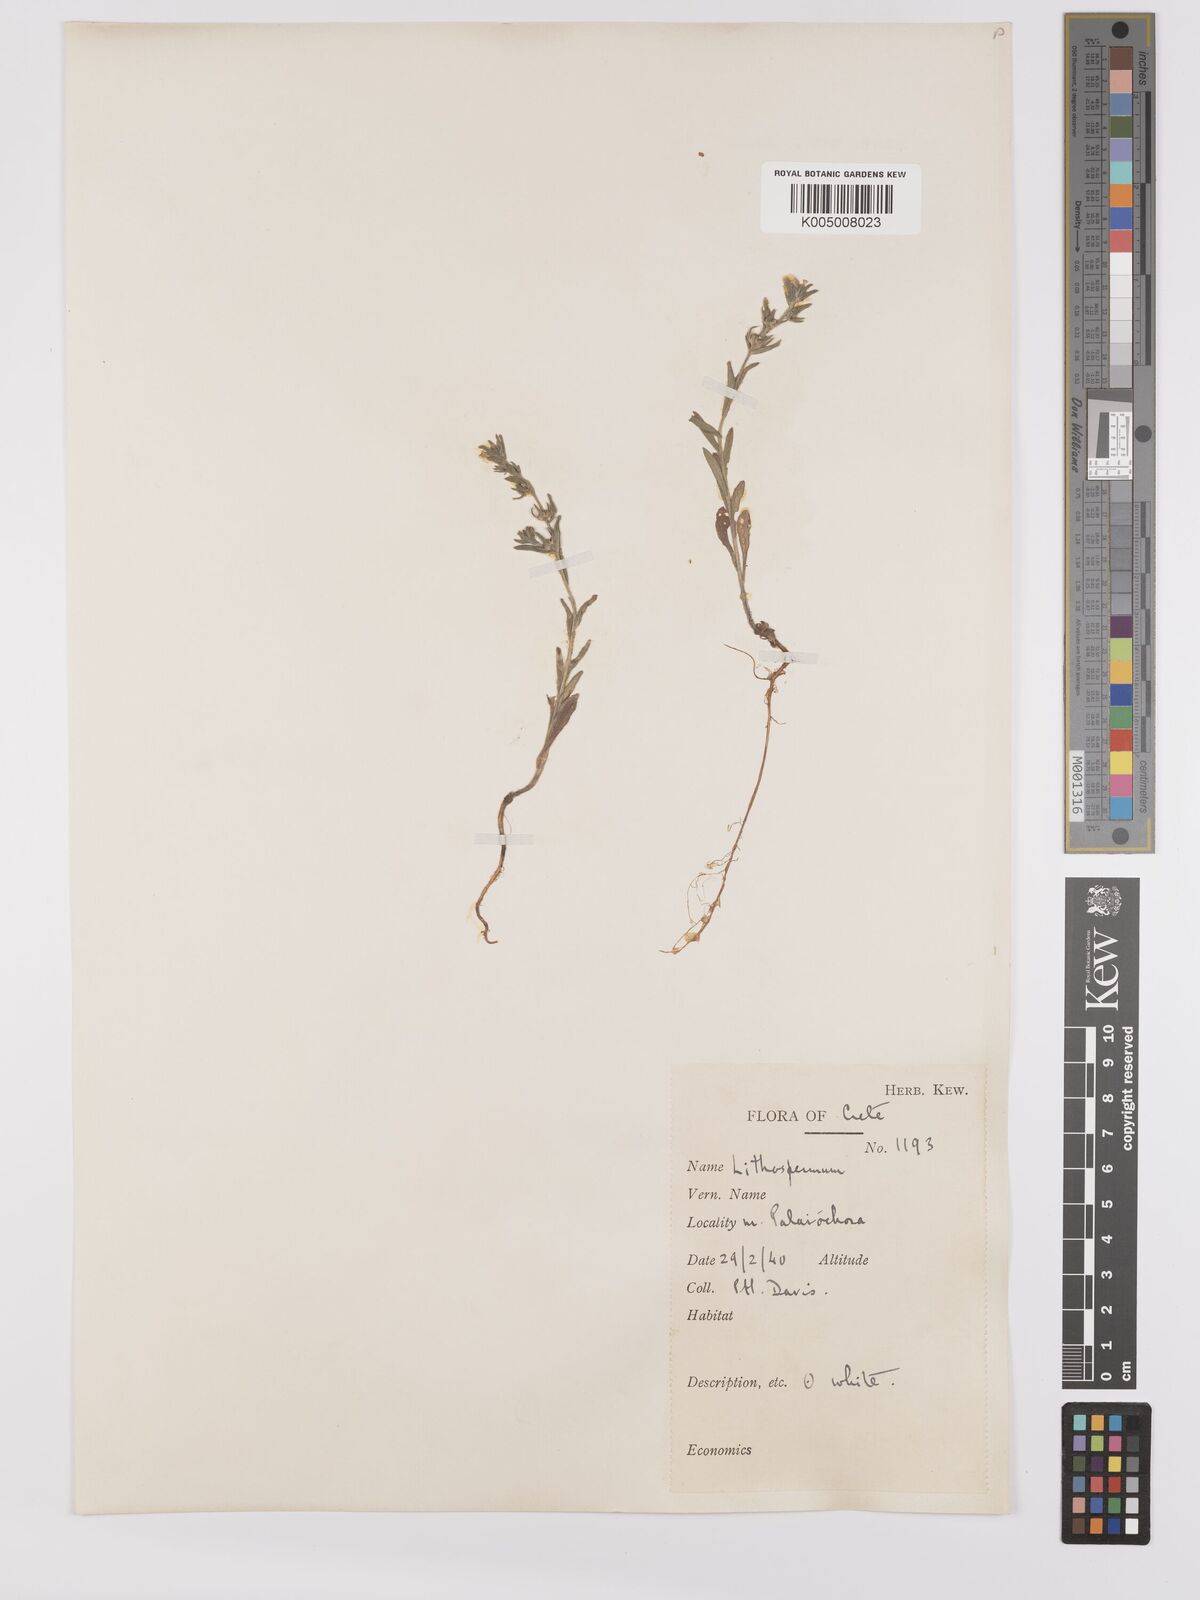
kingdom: Plantae
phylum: Tracheophyta
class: Magnoliopsida
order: Boraginales
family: Boraginaceae
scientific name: Boraginaceae
